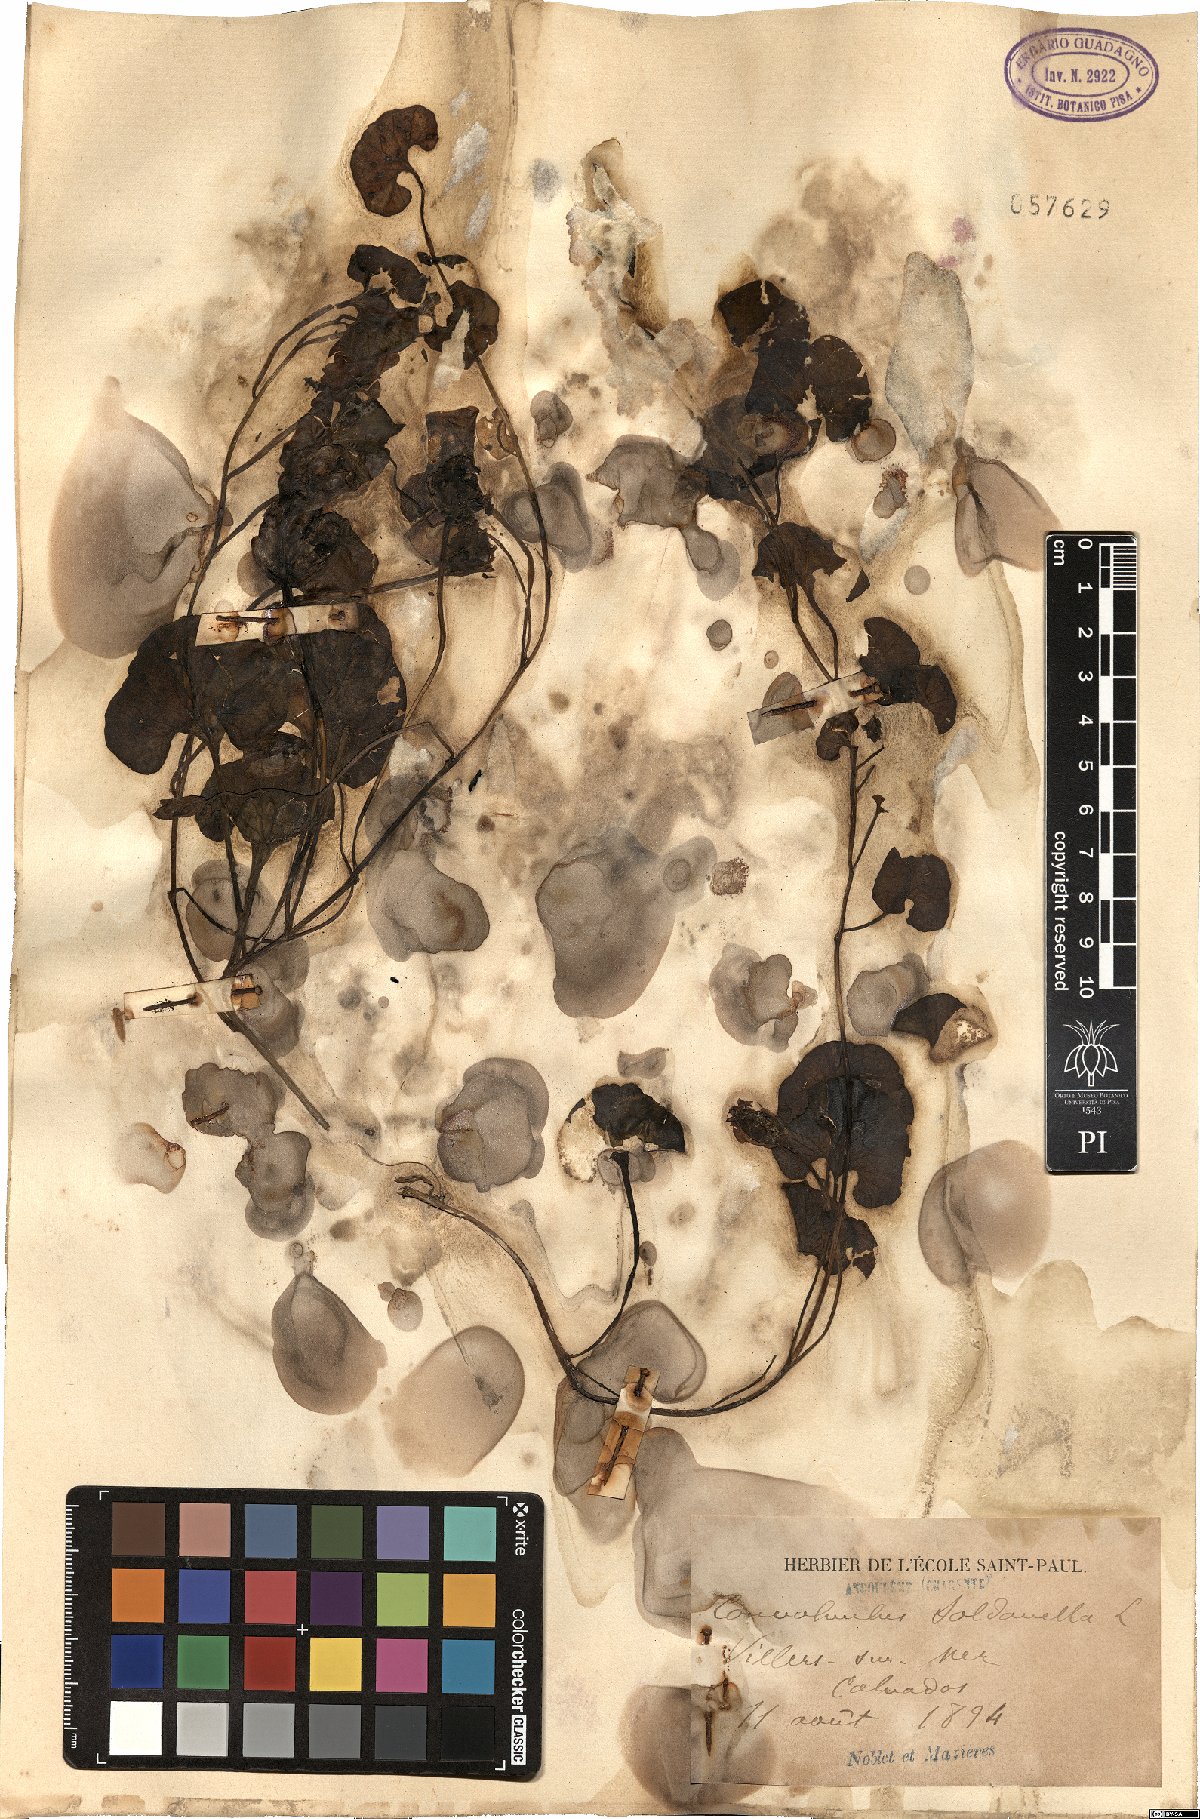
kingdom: Plantae
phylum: Tracheophyta
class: Magnoliopsida
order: Solanales
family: Convolvulaceae
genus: Calystegia
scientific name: Calystegia soldanella
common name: Sea bindweed
